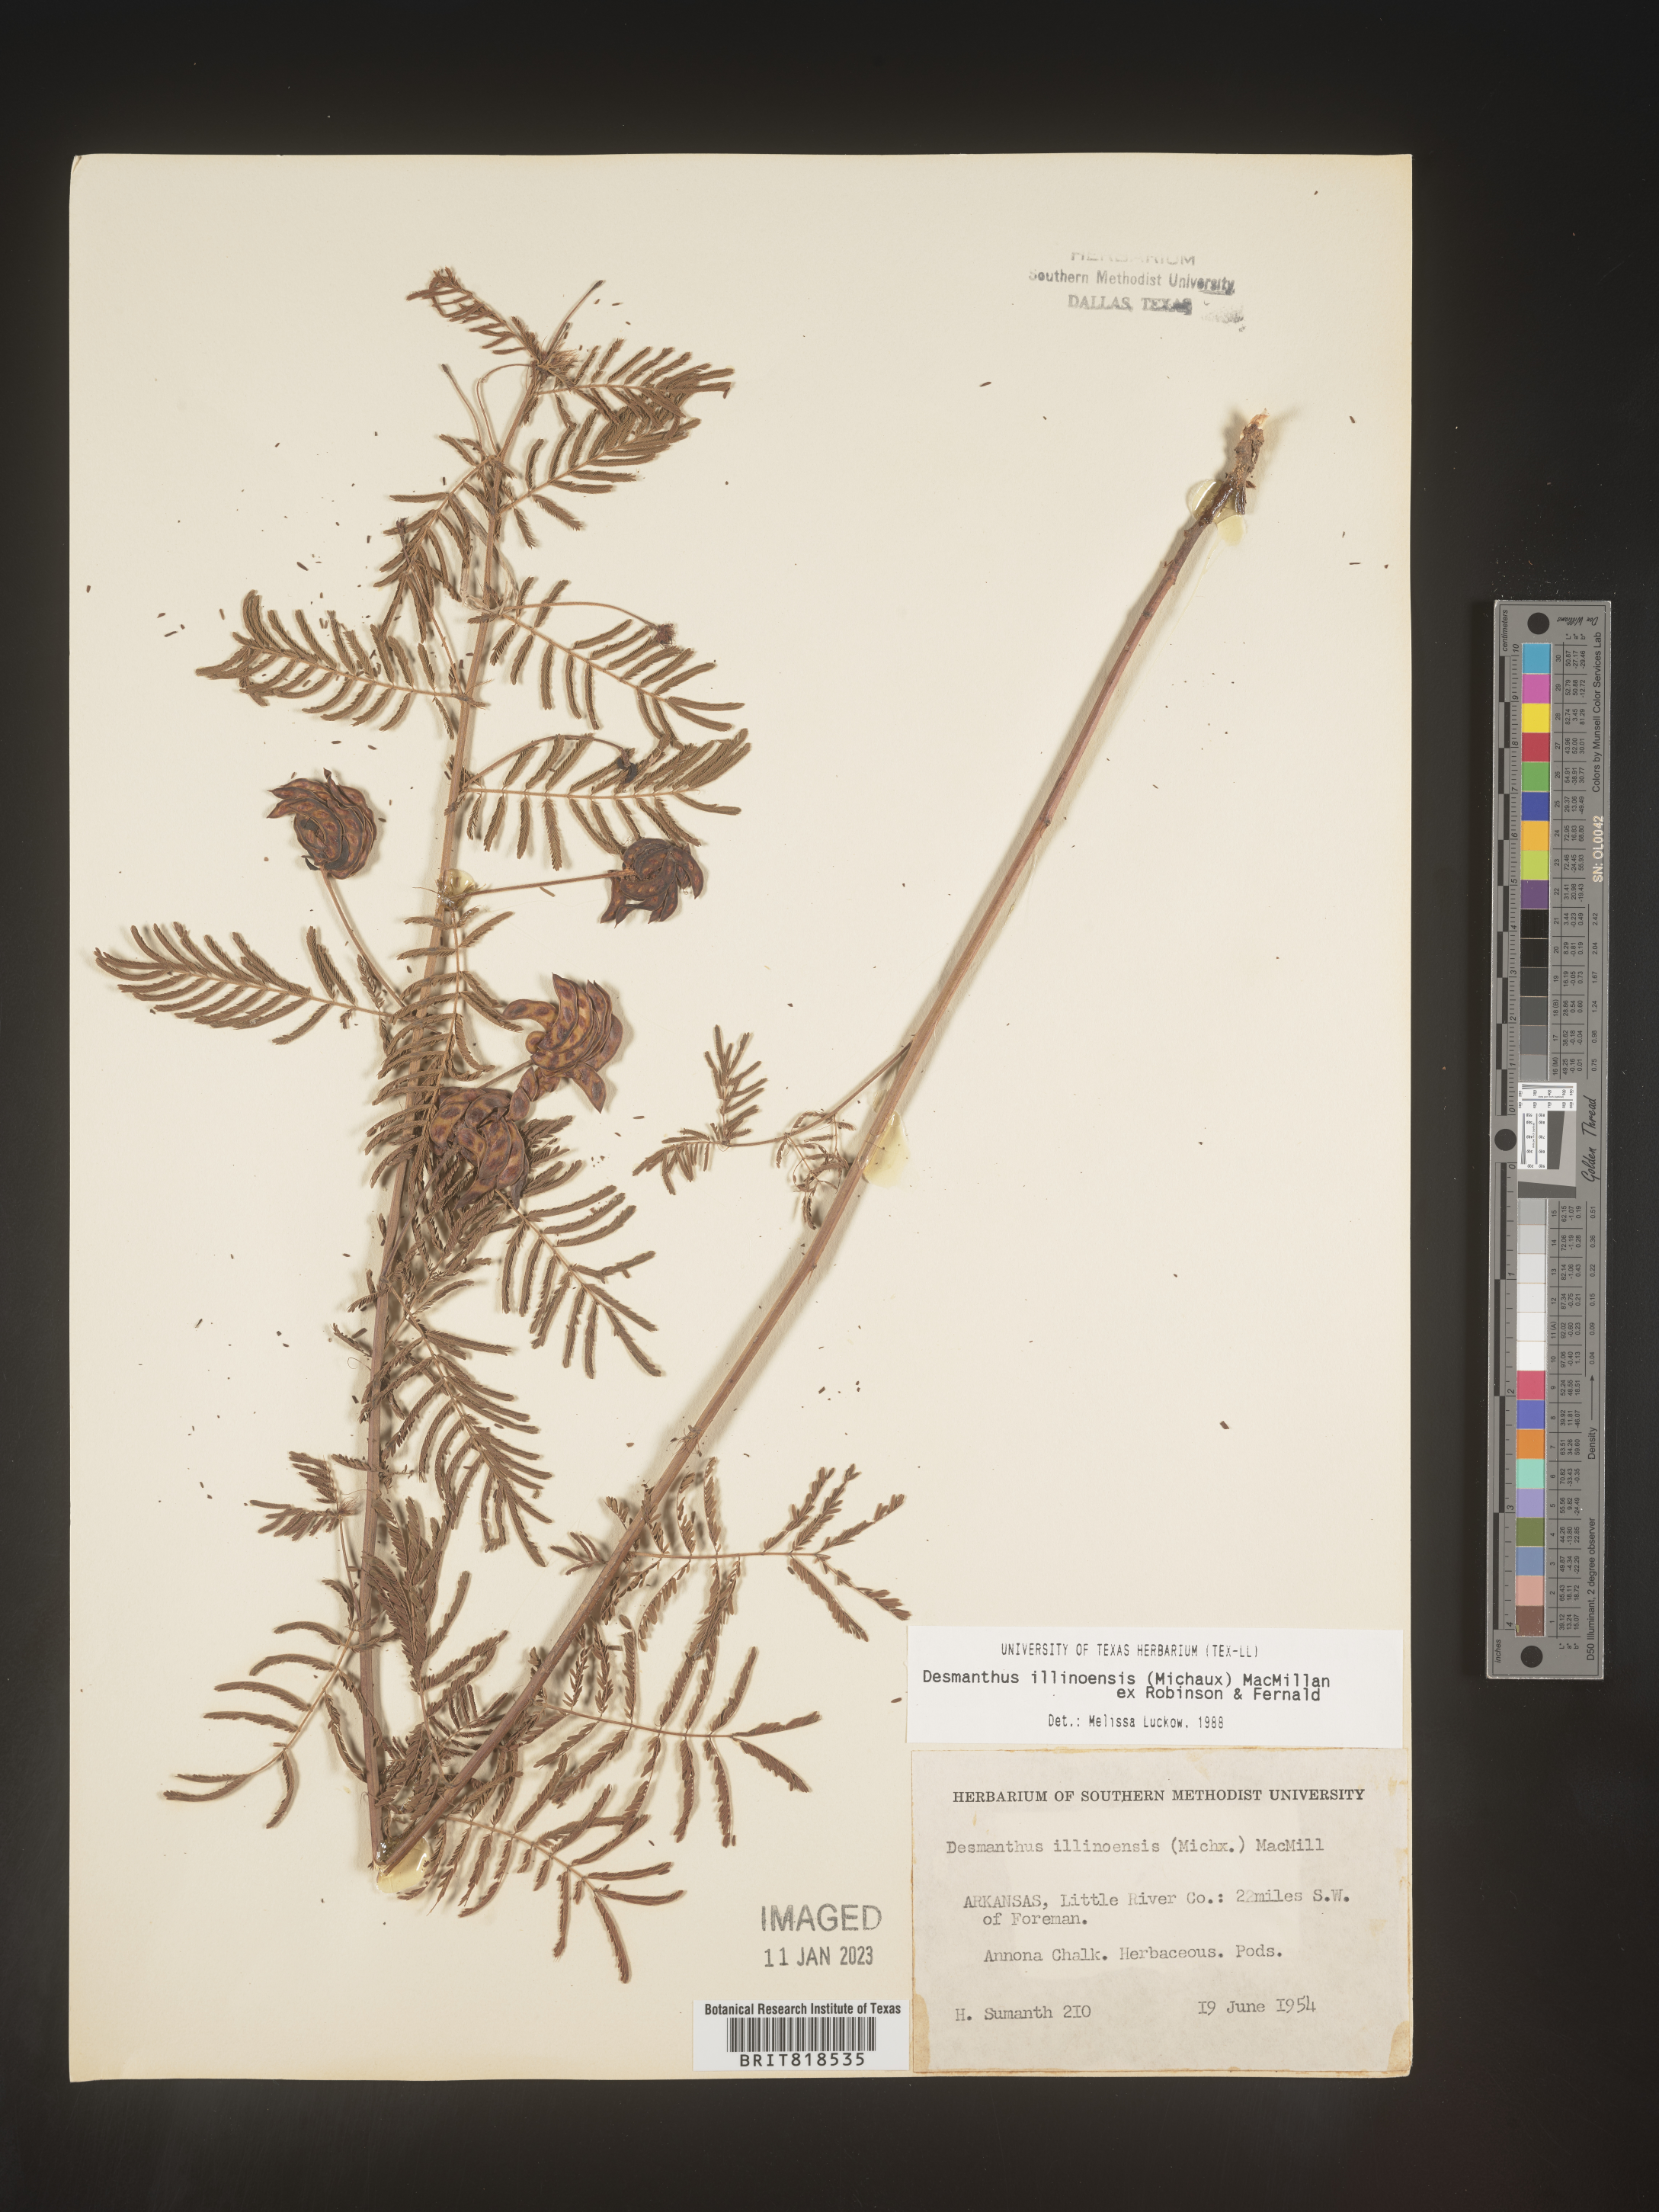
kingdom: Plantae
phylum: Tracheophyta
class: Magnoliopsida
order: Fabales
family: Fabaceae
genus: Desmanthus
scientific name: Desmanthus illinoensis
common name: Illinois bundle-flower
